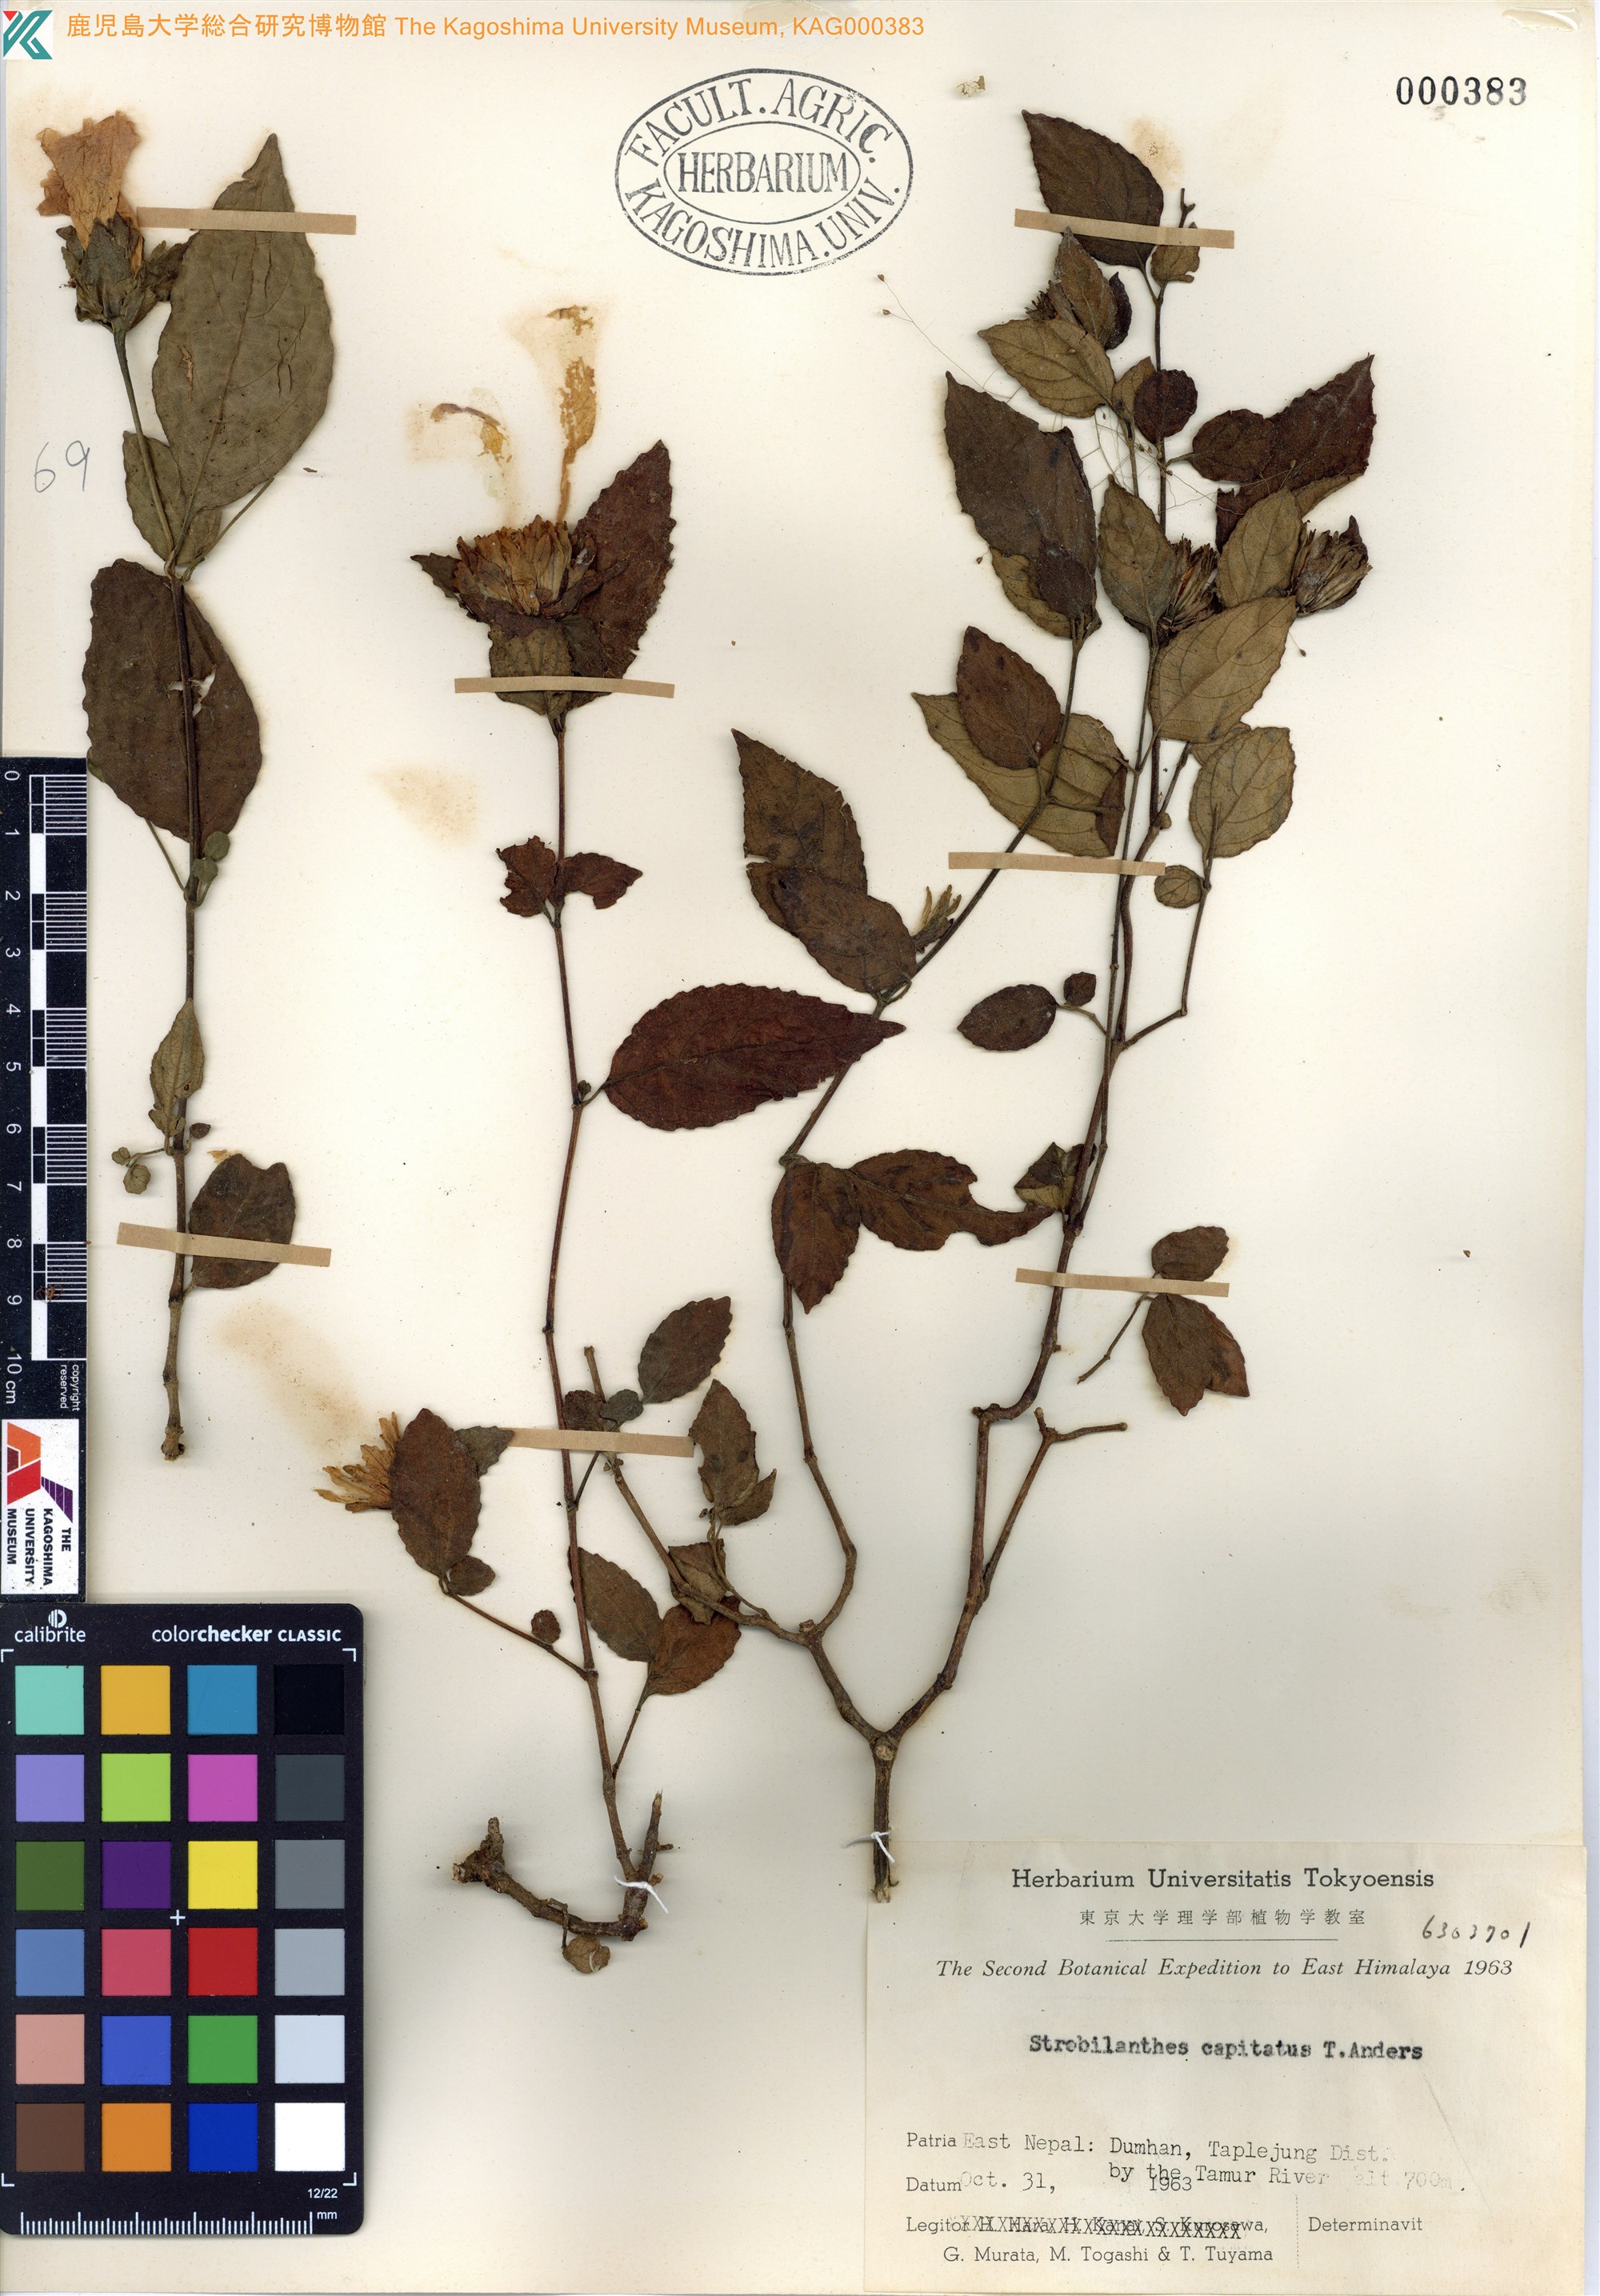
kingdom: Plantae
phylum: Tracheophyta
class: Magnoliopsida
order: Lamiales
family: Acanthaceae
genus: Strobilanthes
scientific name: Strobilanthes capitata
